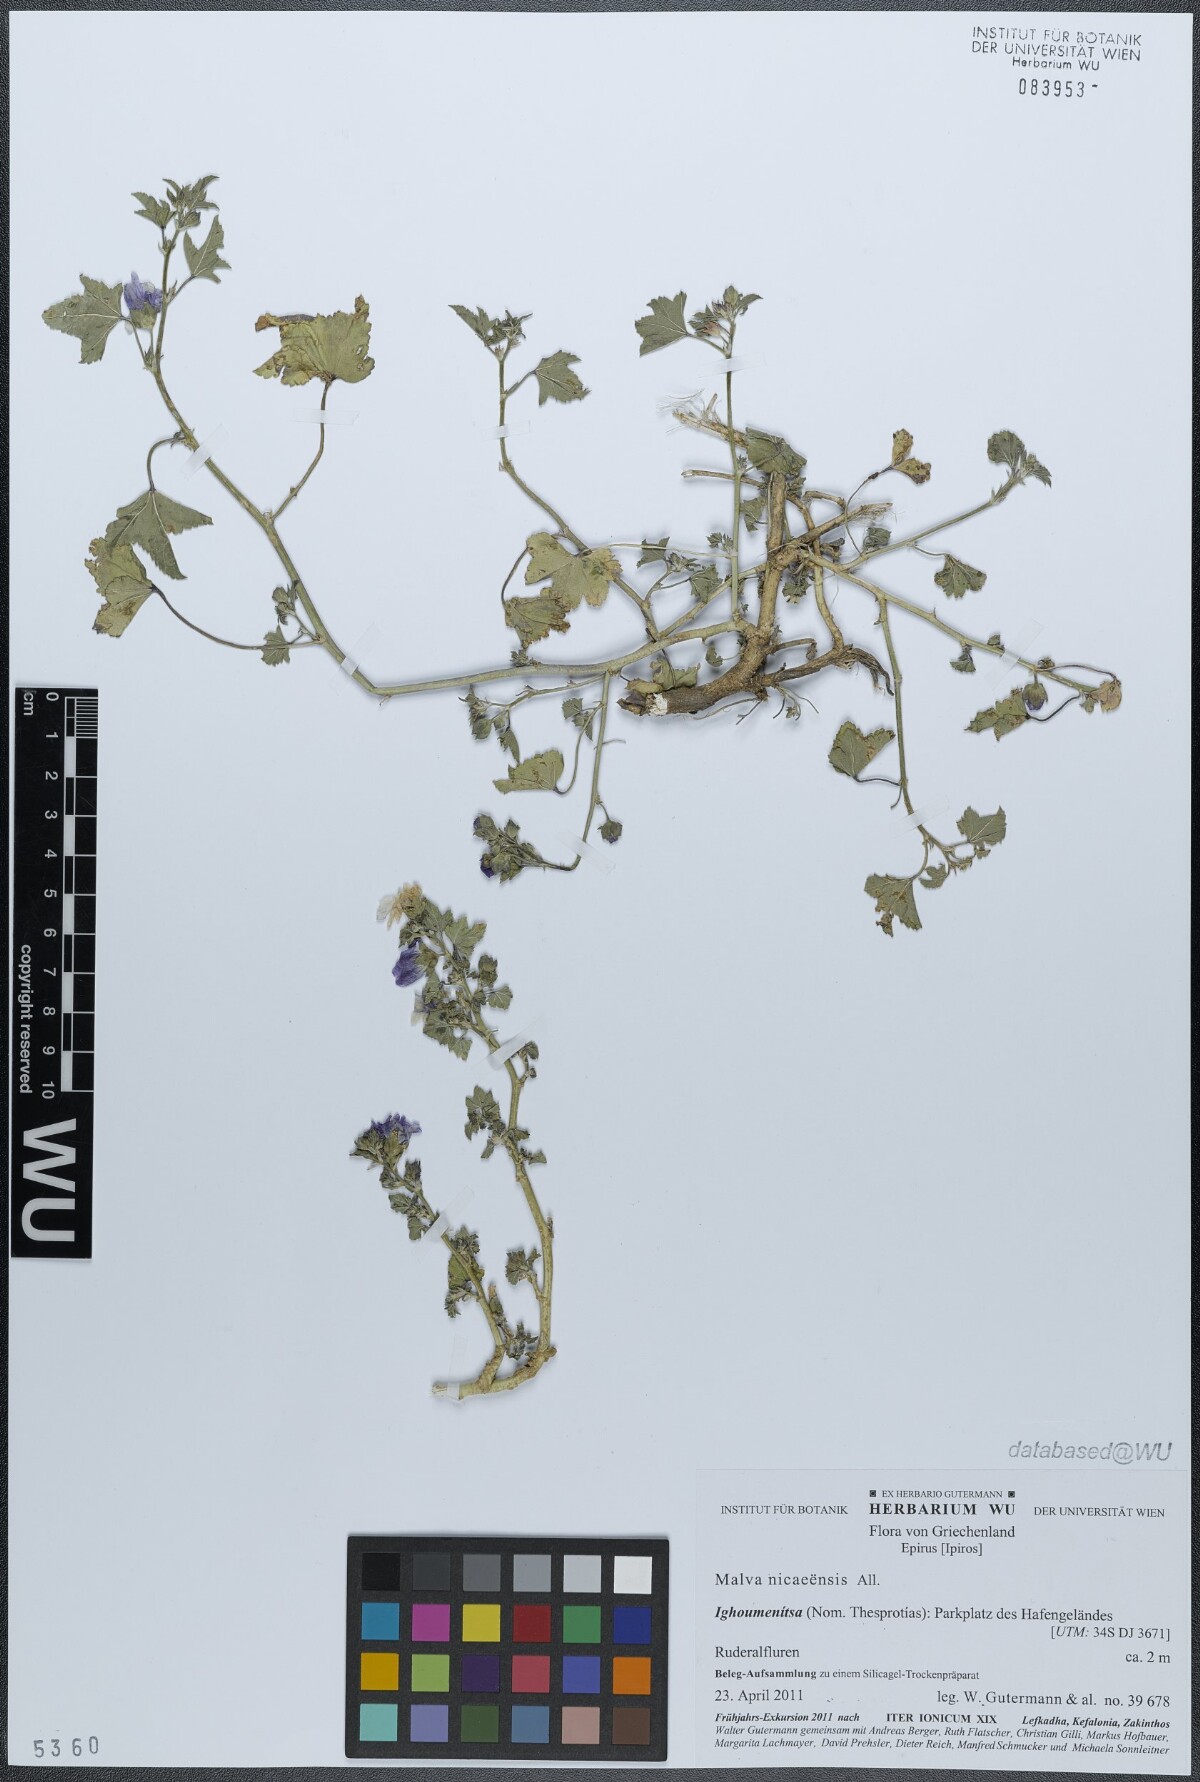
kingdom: Plantae
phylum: Tracheophyta
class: Magnoliopsida
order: Malvales
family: Malvaceae
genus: Malva
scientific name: Malva nicaeensis
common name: French mallow
